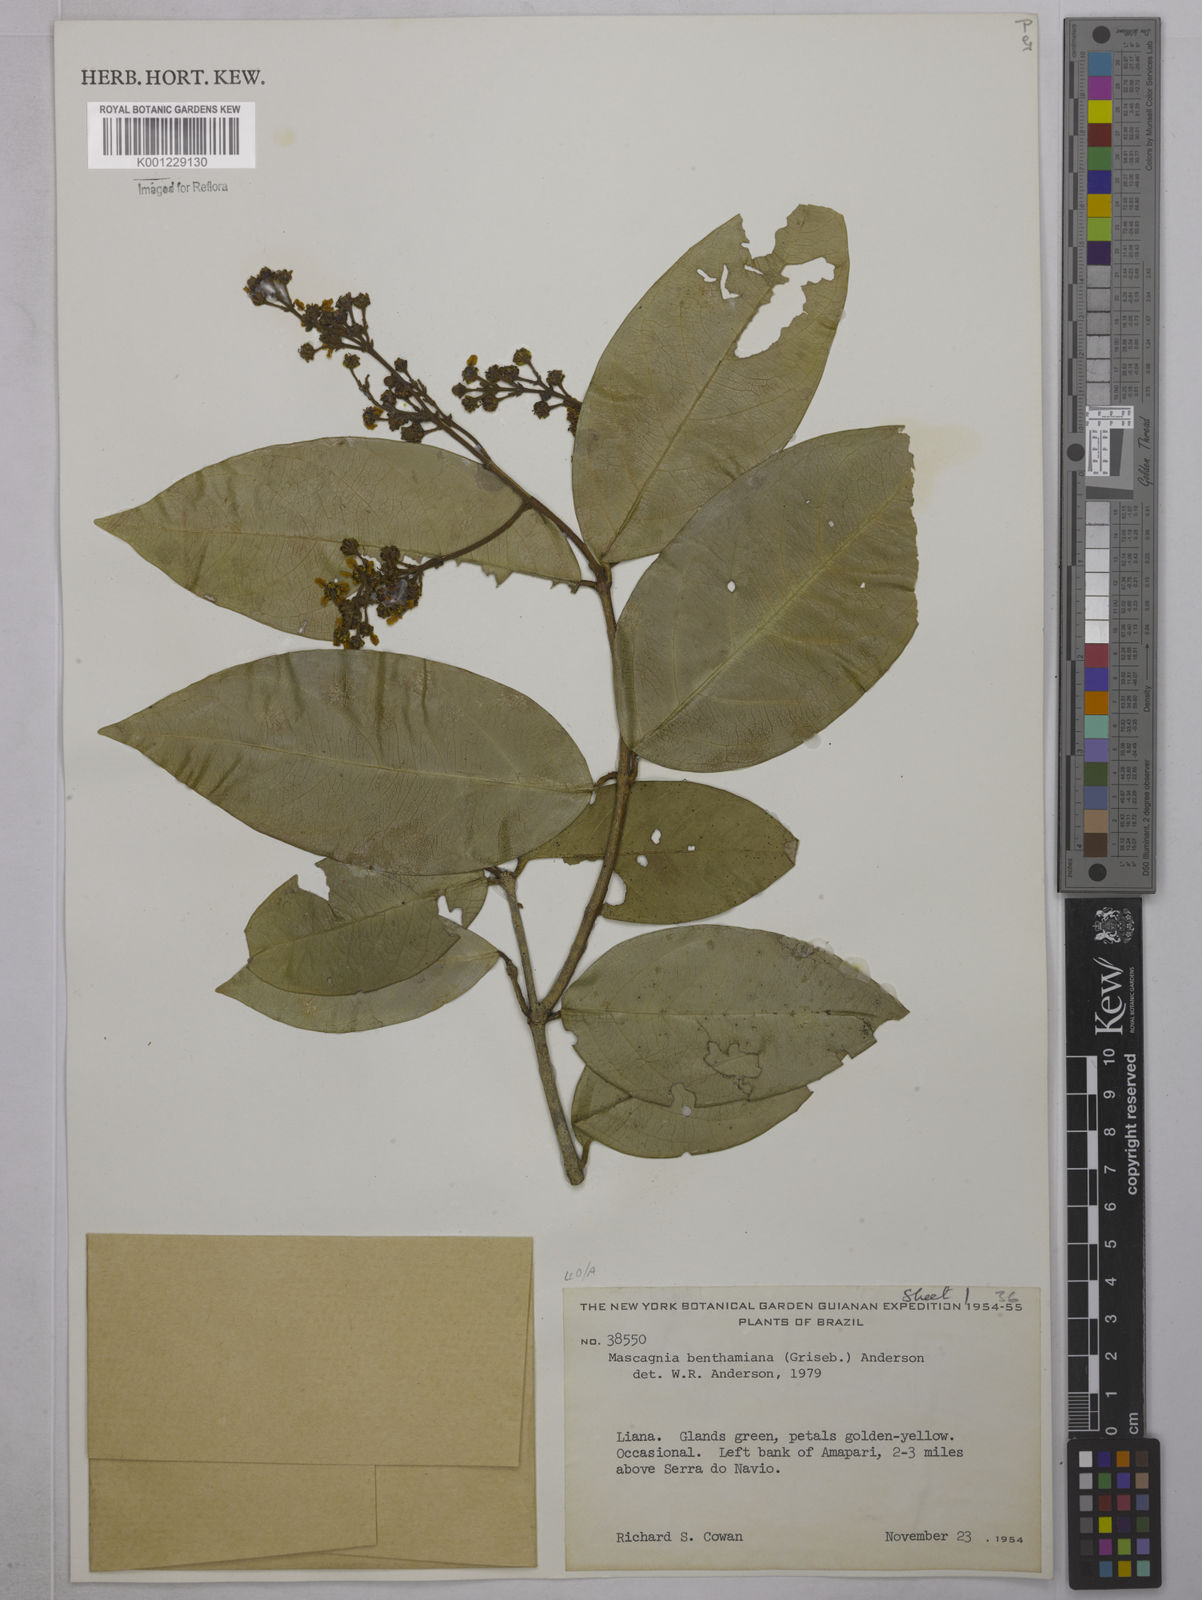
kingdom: Plantae
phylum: Tracheophyta
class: Magnoliopsida
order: Malpighiales
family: Malpighiaceae
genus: Niedenzuella
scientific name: Niedenzuella stannea
